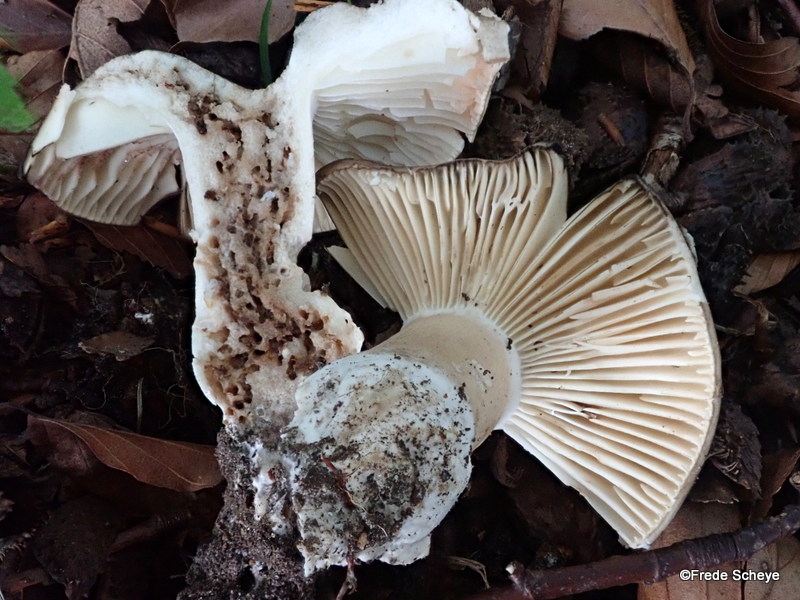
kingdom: Fungi
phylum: Basidiomycota
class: Agaricomycetes
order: Russulales
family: Russulaceae
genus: Russula
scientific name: Russula adusta
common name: sværtende skørhat
